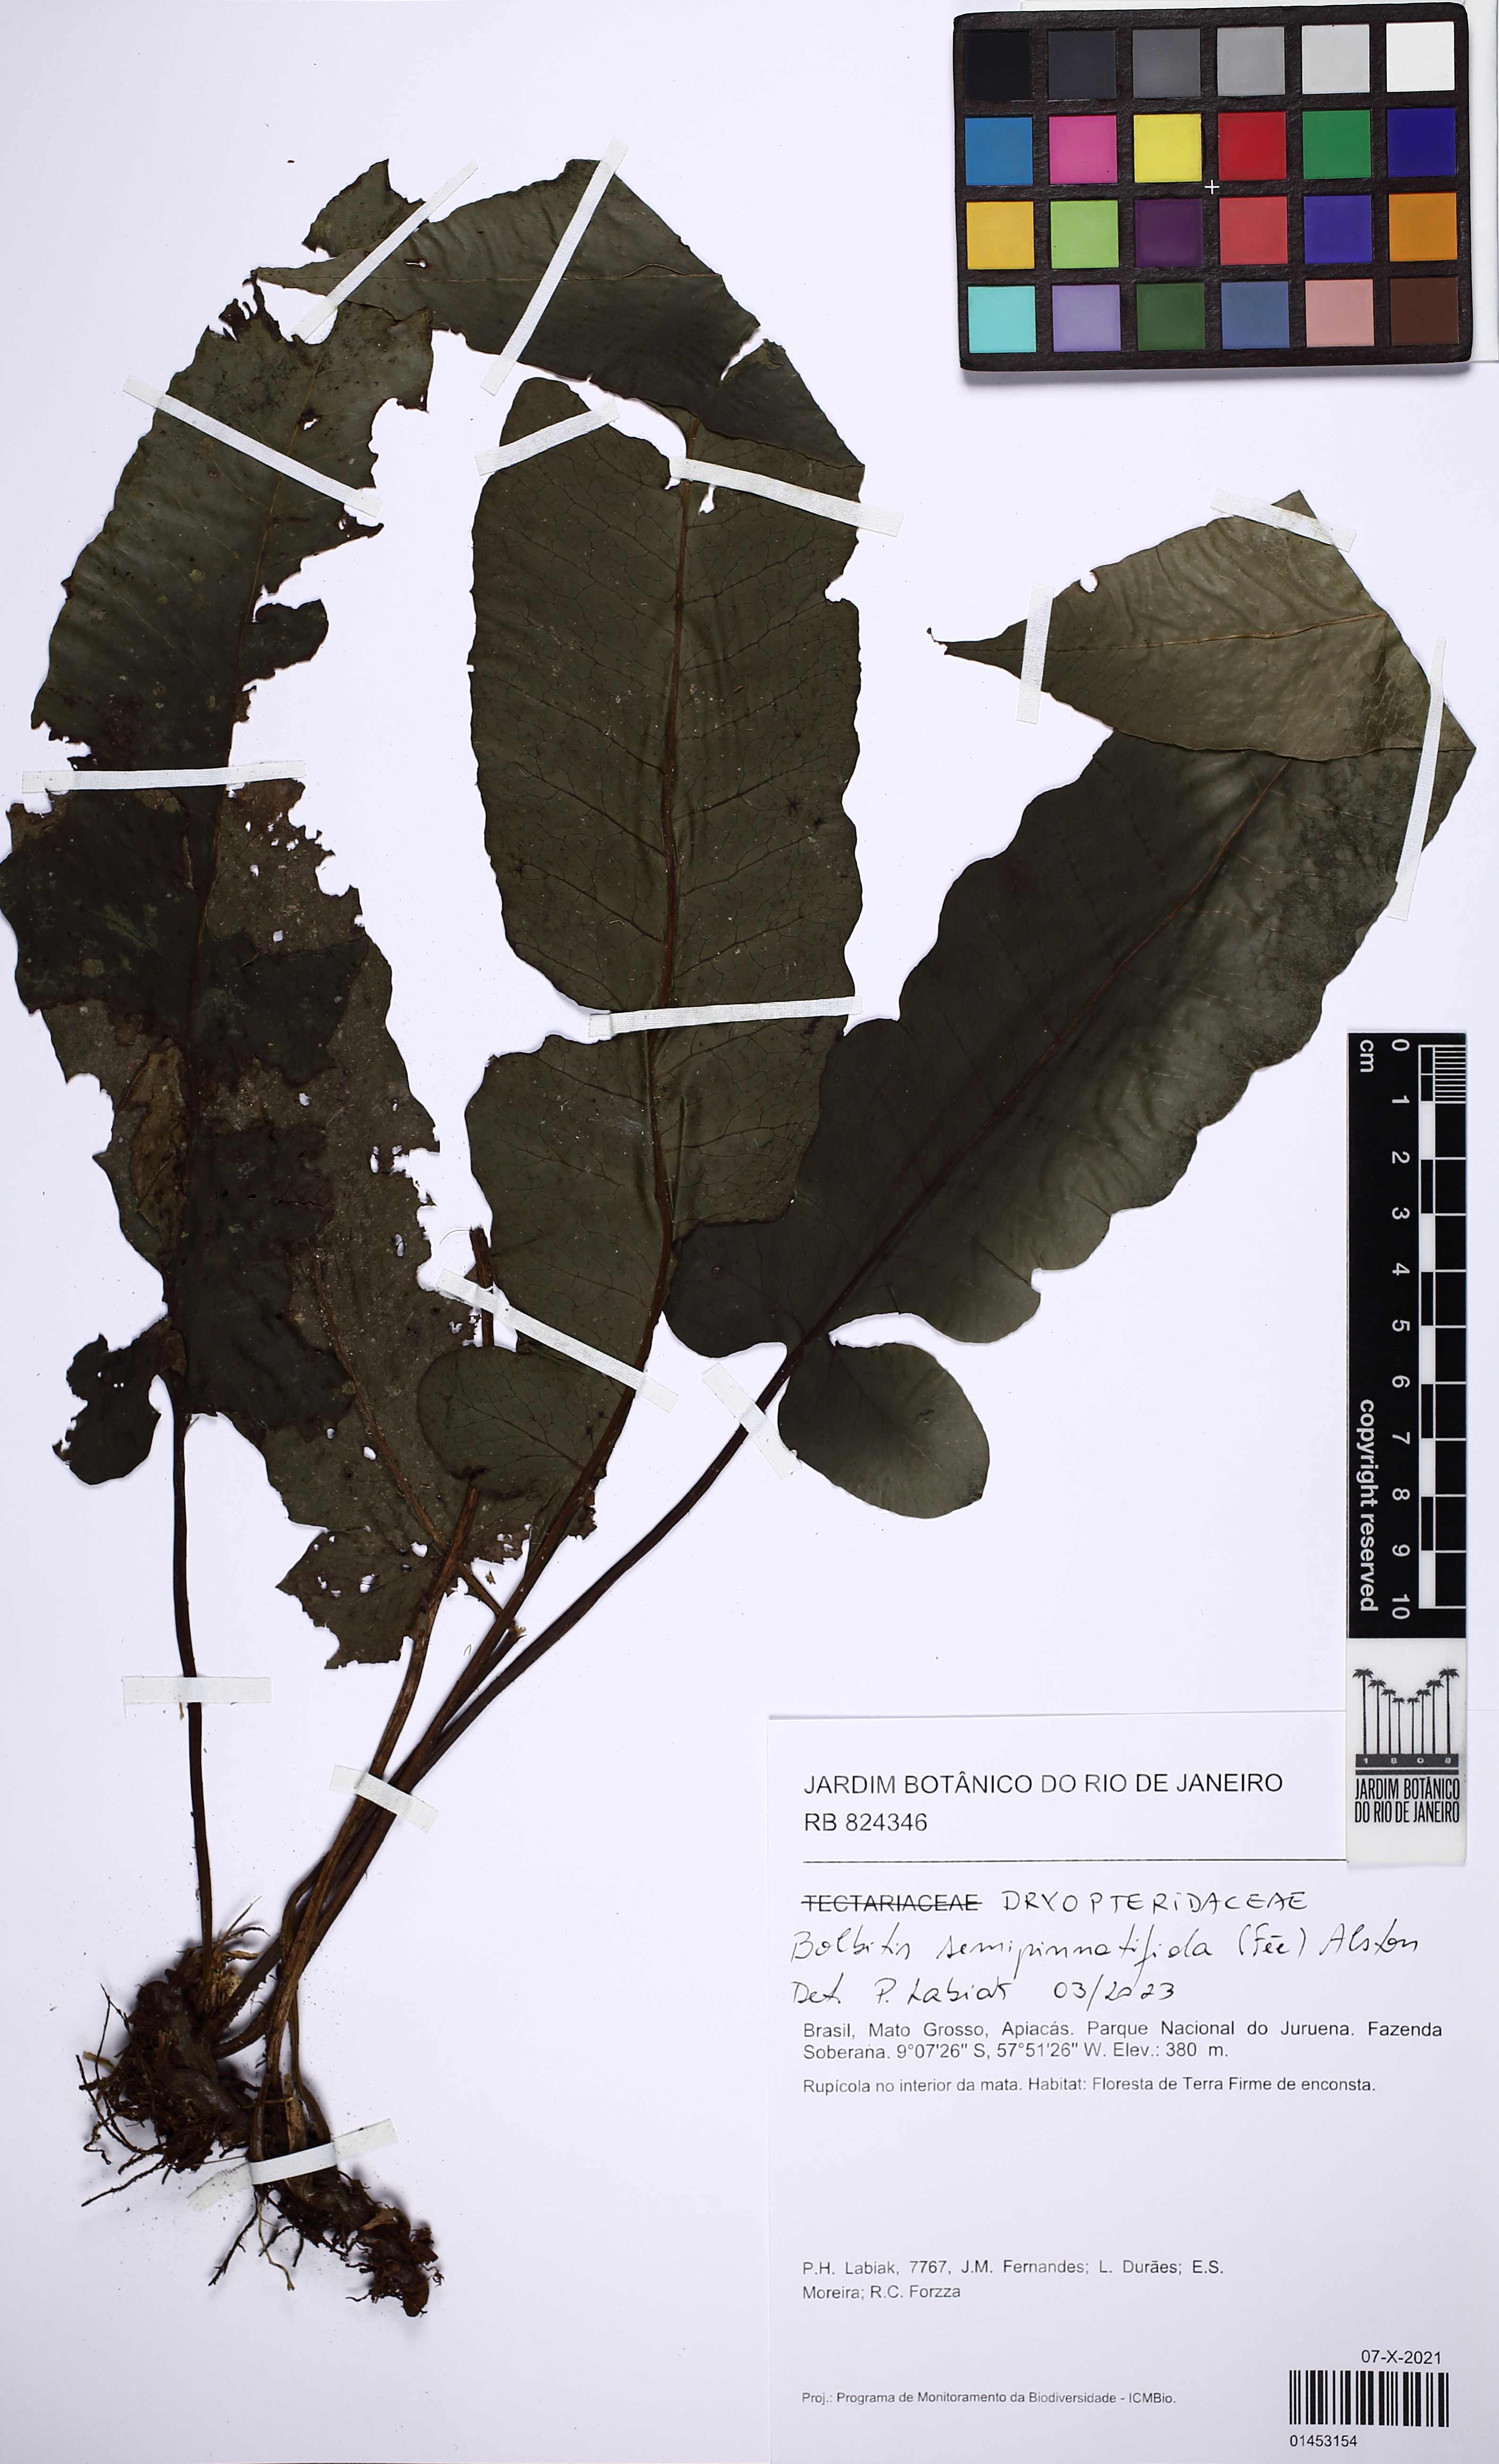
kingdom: Plantae
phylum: Tracheophyta
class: Polypodiopsida
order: Polypodiales
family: Dryopteridaceae
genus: Bolbitis
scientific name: Bolbitis semipinnatifida
